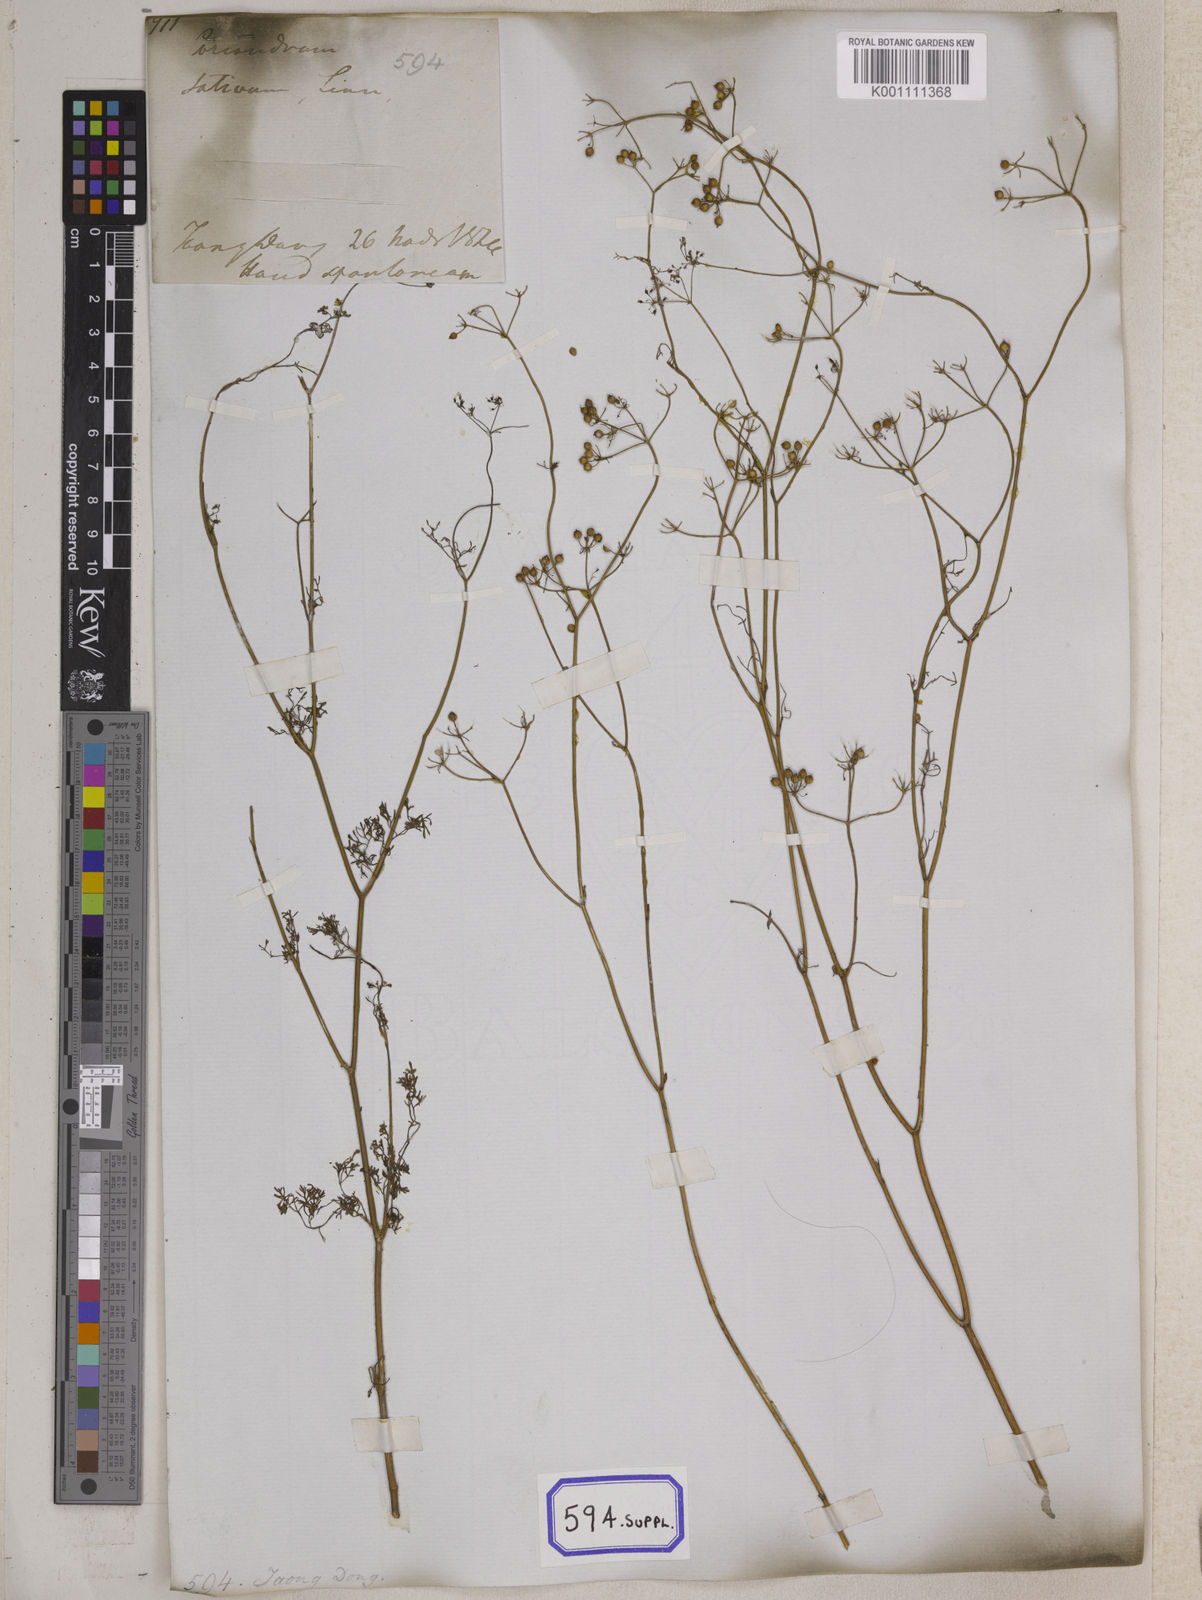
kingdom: Plantae
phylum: Tracheophyta
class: Magnoliopsida
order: Apiales
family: Apiaceae
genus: Cuminum
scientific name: Cuminum cyminum
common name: Cumin
